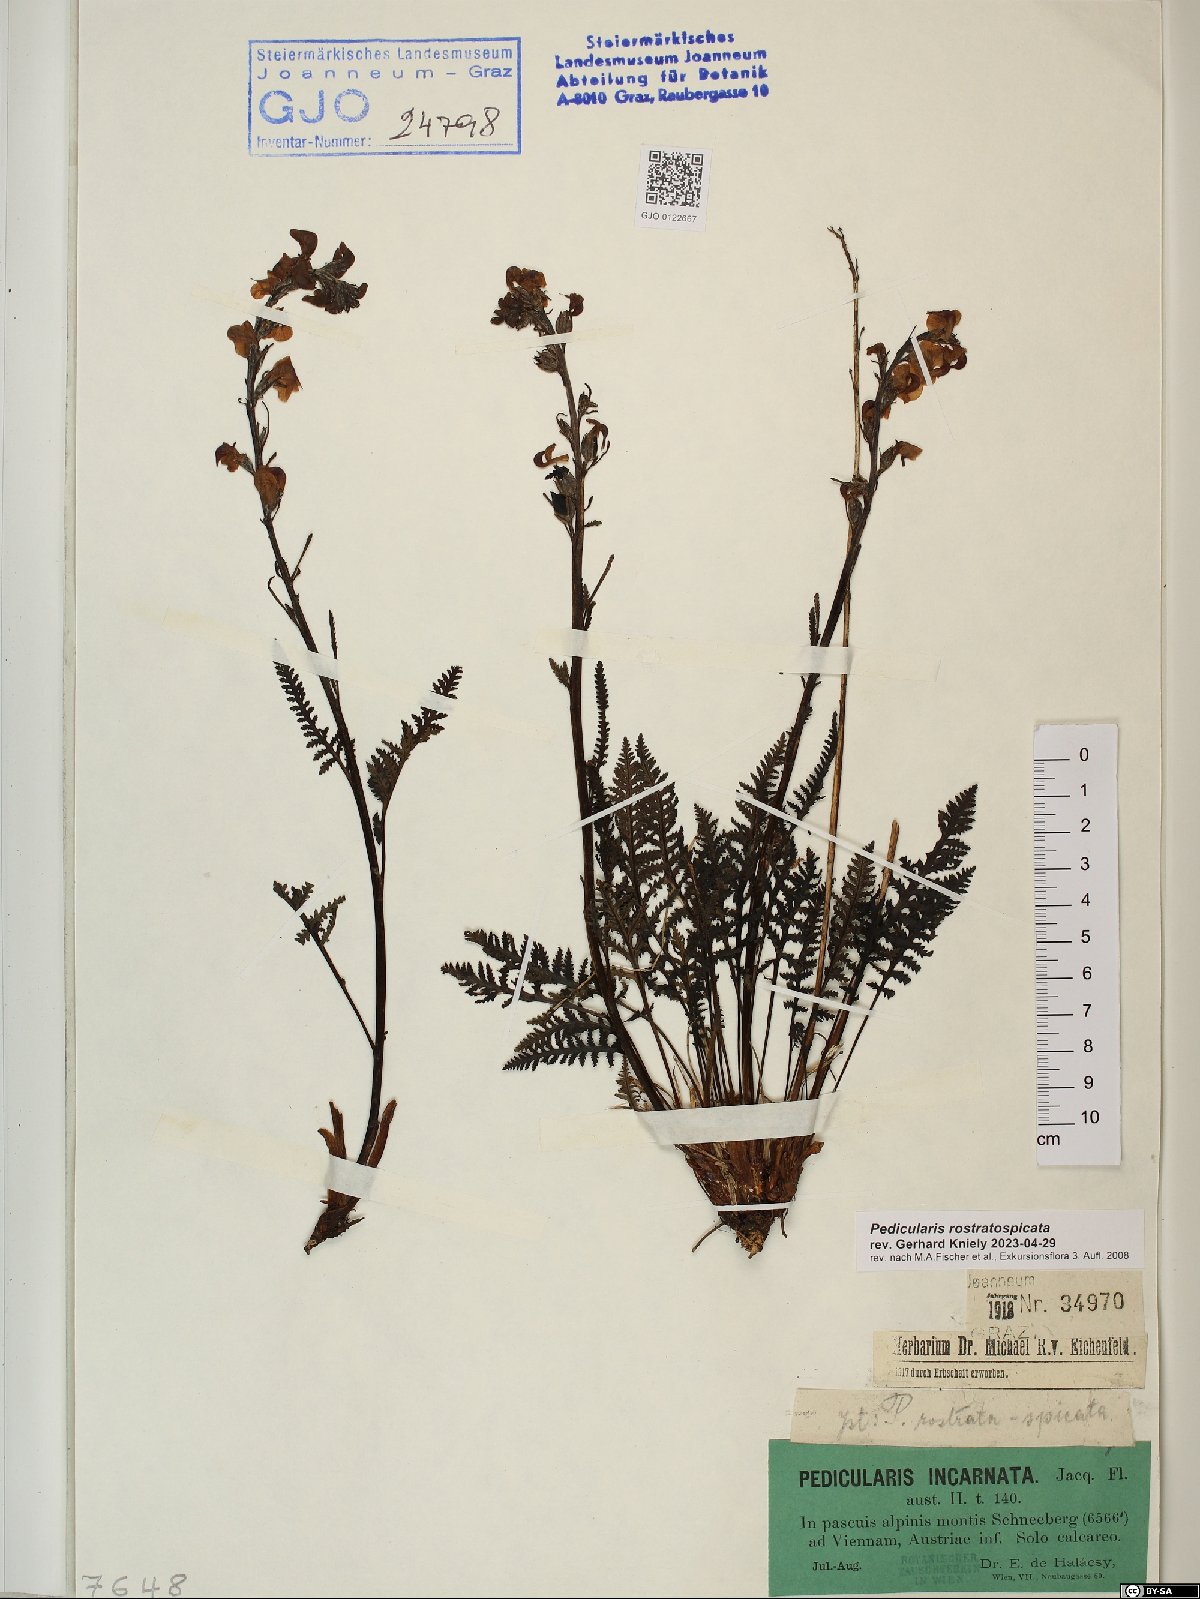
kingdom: Plantae
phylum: Tracheophyta
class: Magnoliopsida
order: Lamiales
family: Orobanchaceae
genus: Pedicularis
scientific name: Pedicularis rostratospicata
